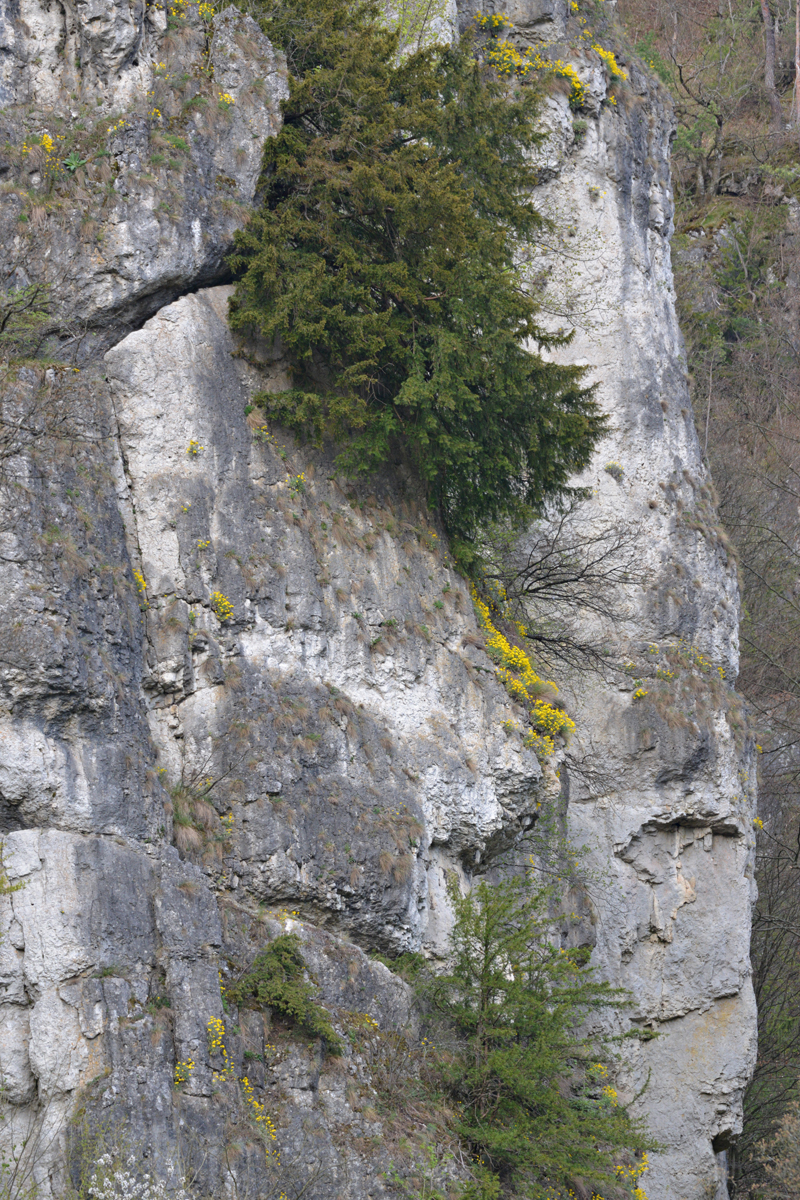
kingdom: Plantae
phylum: Tracheophyta
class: Magnoliopsida
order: Brassicales
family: Brassicaceae
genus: Aurinia
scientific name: Aurinia saxatilis
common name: Golden-tuft alyssum
